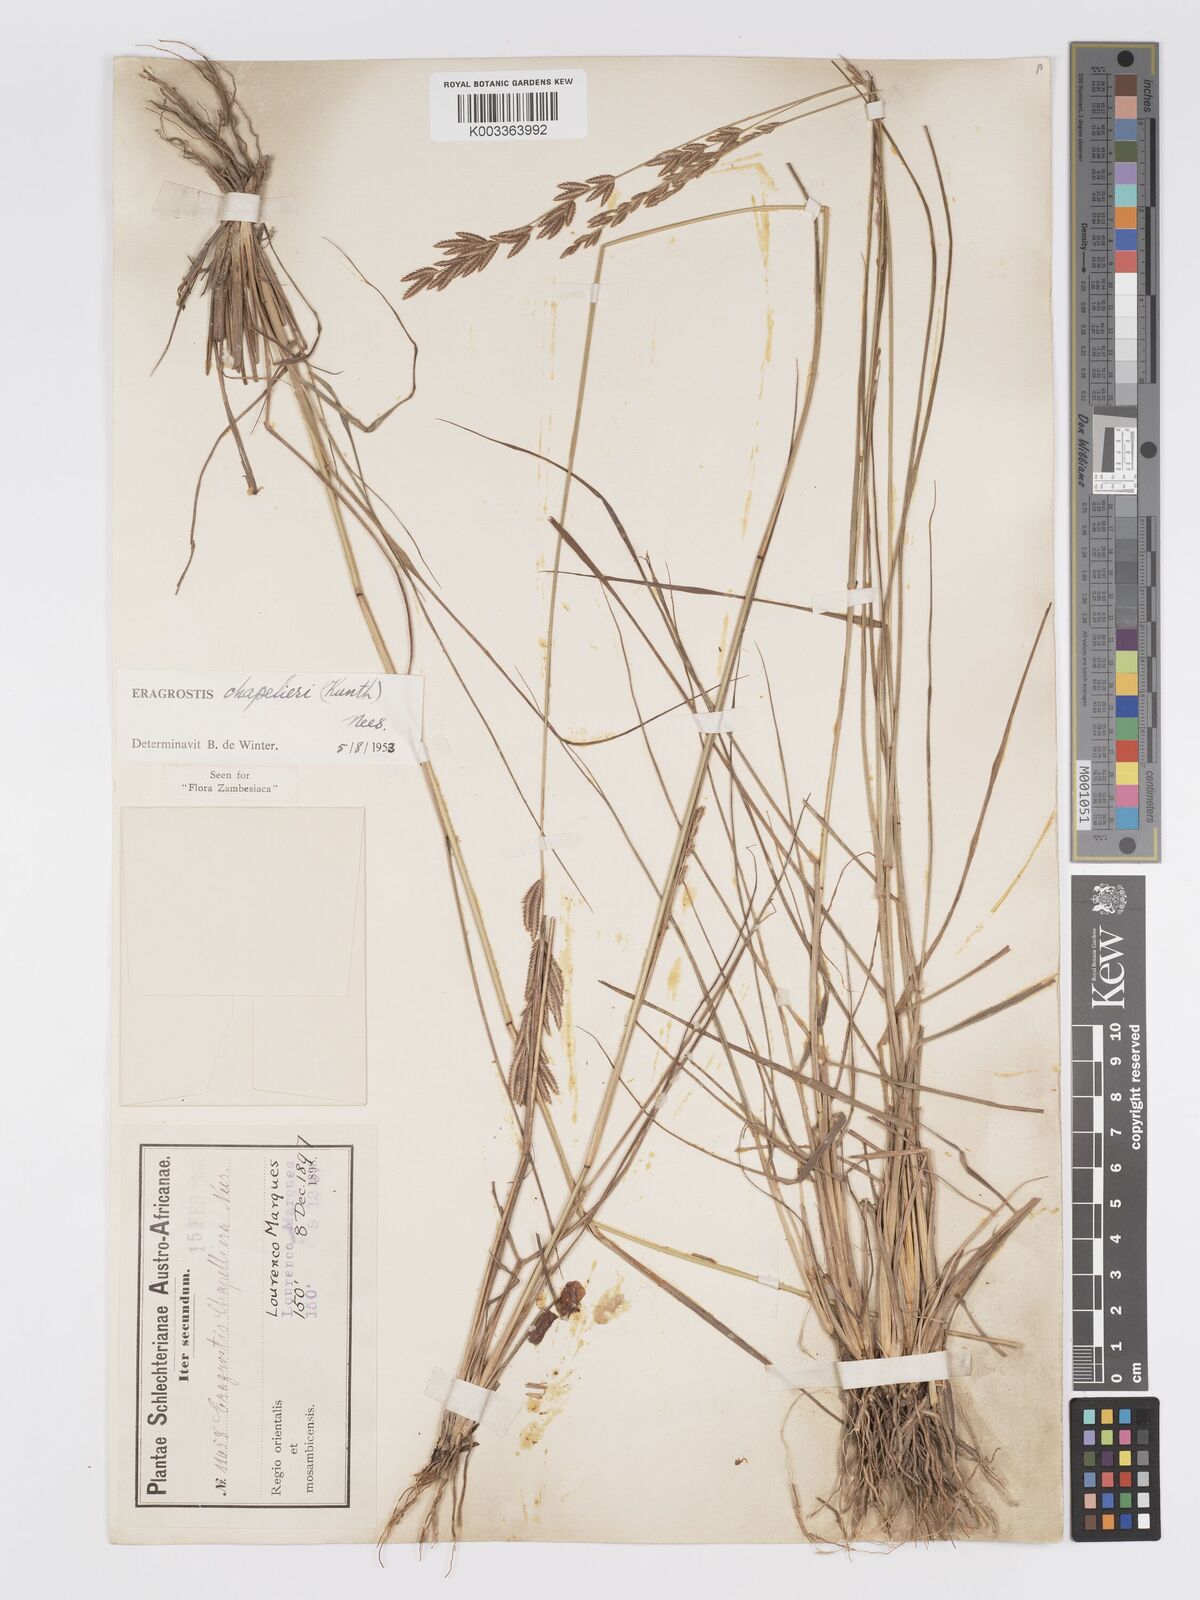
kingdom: Plantae
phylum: Tracheophyta
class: Liliopsida
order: Poales
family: Poaceae
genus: Eragrostis
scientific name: Eragrostis chapelieri
